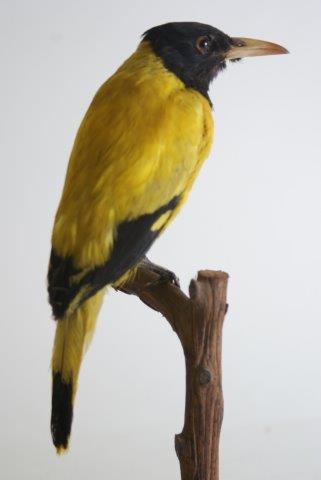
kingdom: Animalia
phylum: Chordata
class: Aves
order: Passeriformes
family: Oriolidae
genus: Oriolus
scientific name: Oriolus xanthornus
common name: Black-hooded oriole
